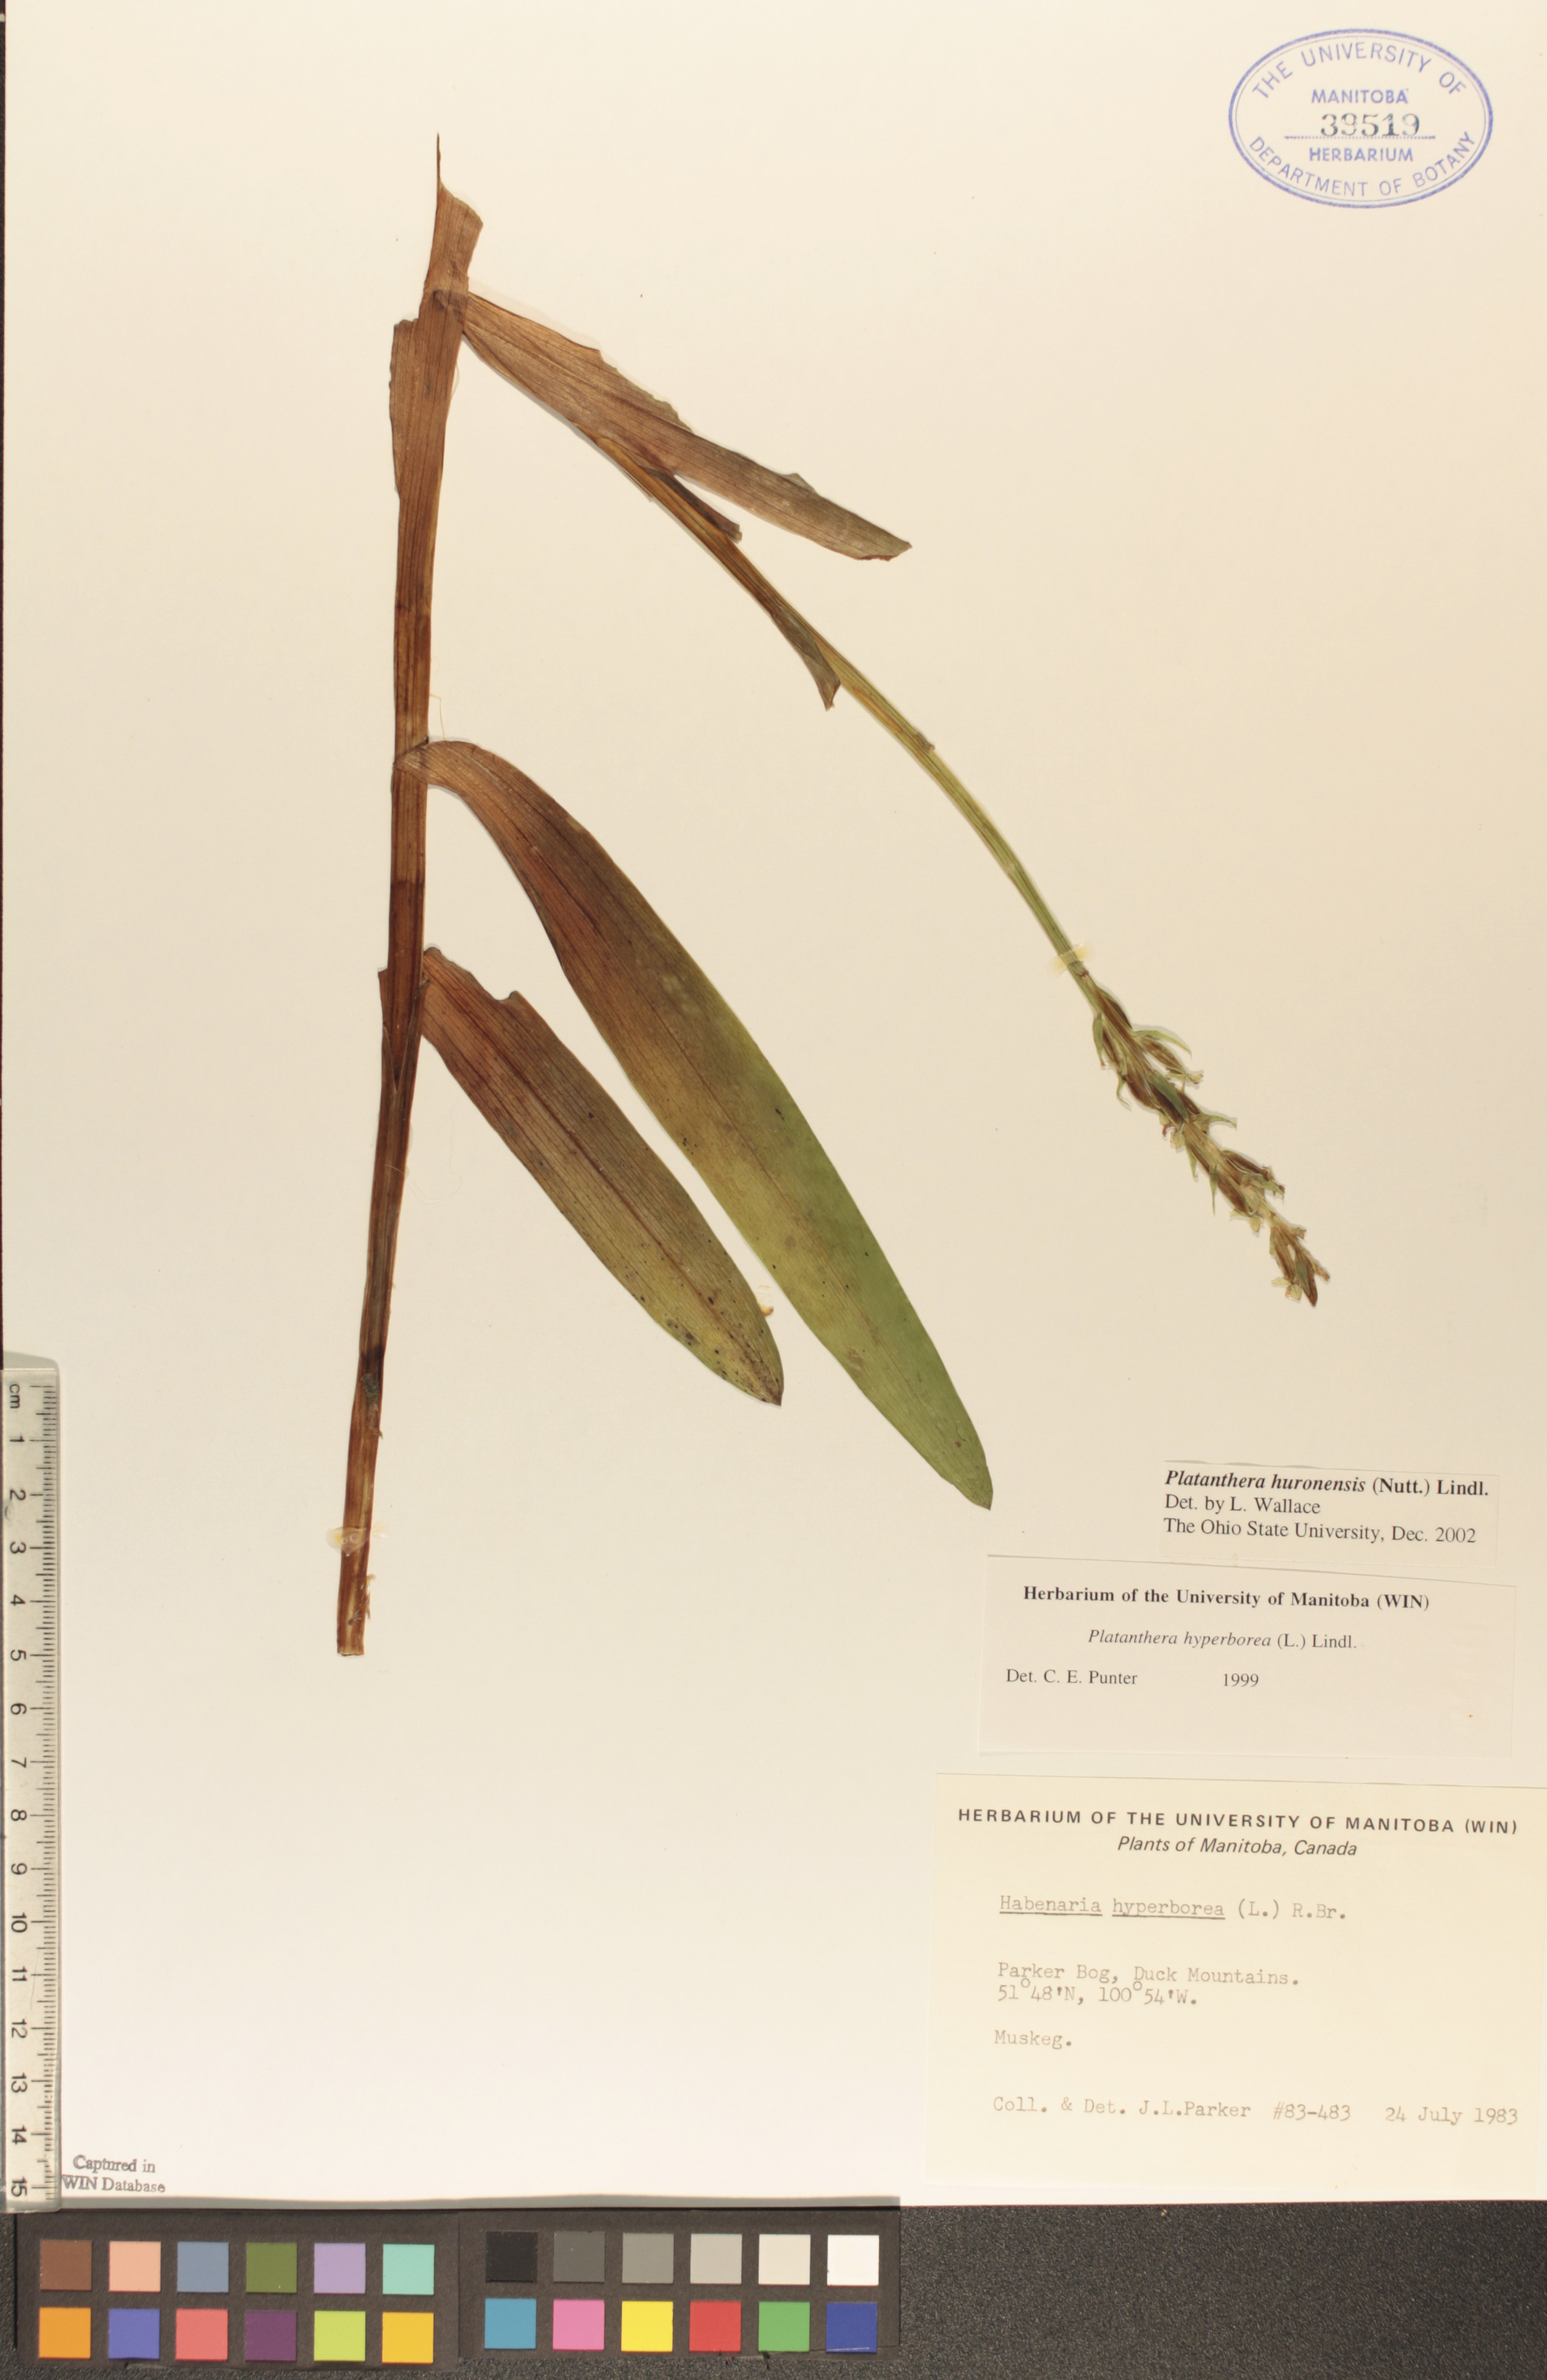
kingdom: Plantae
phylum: Tracheophyta
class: Liliopsida
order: Asparagales
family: Orchidaceae
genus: Platanthera
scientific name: Platanthera huronensis
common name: Fragrant green orchid
